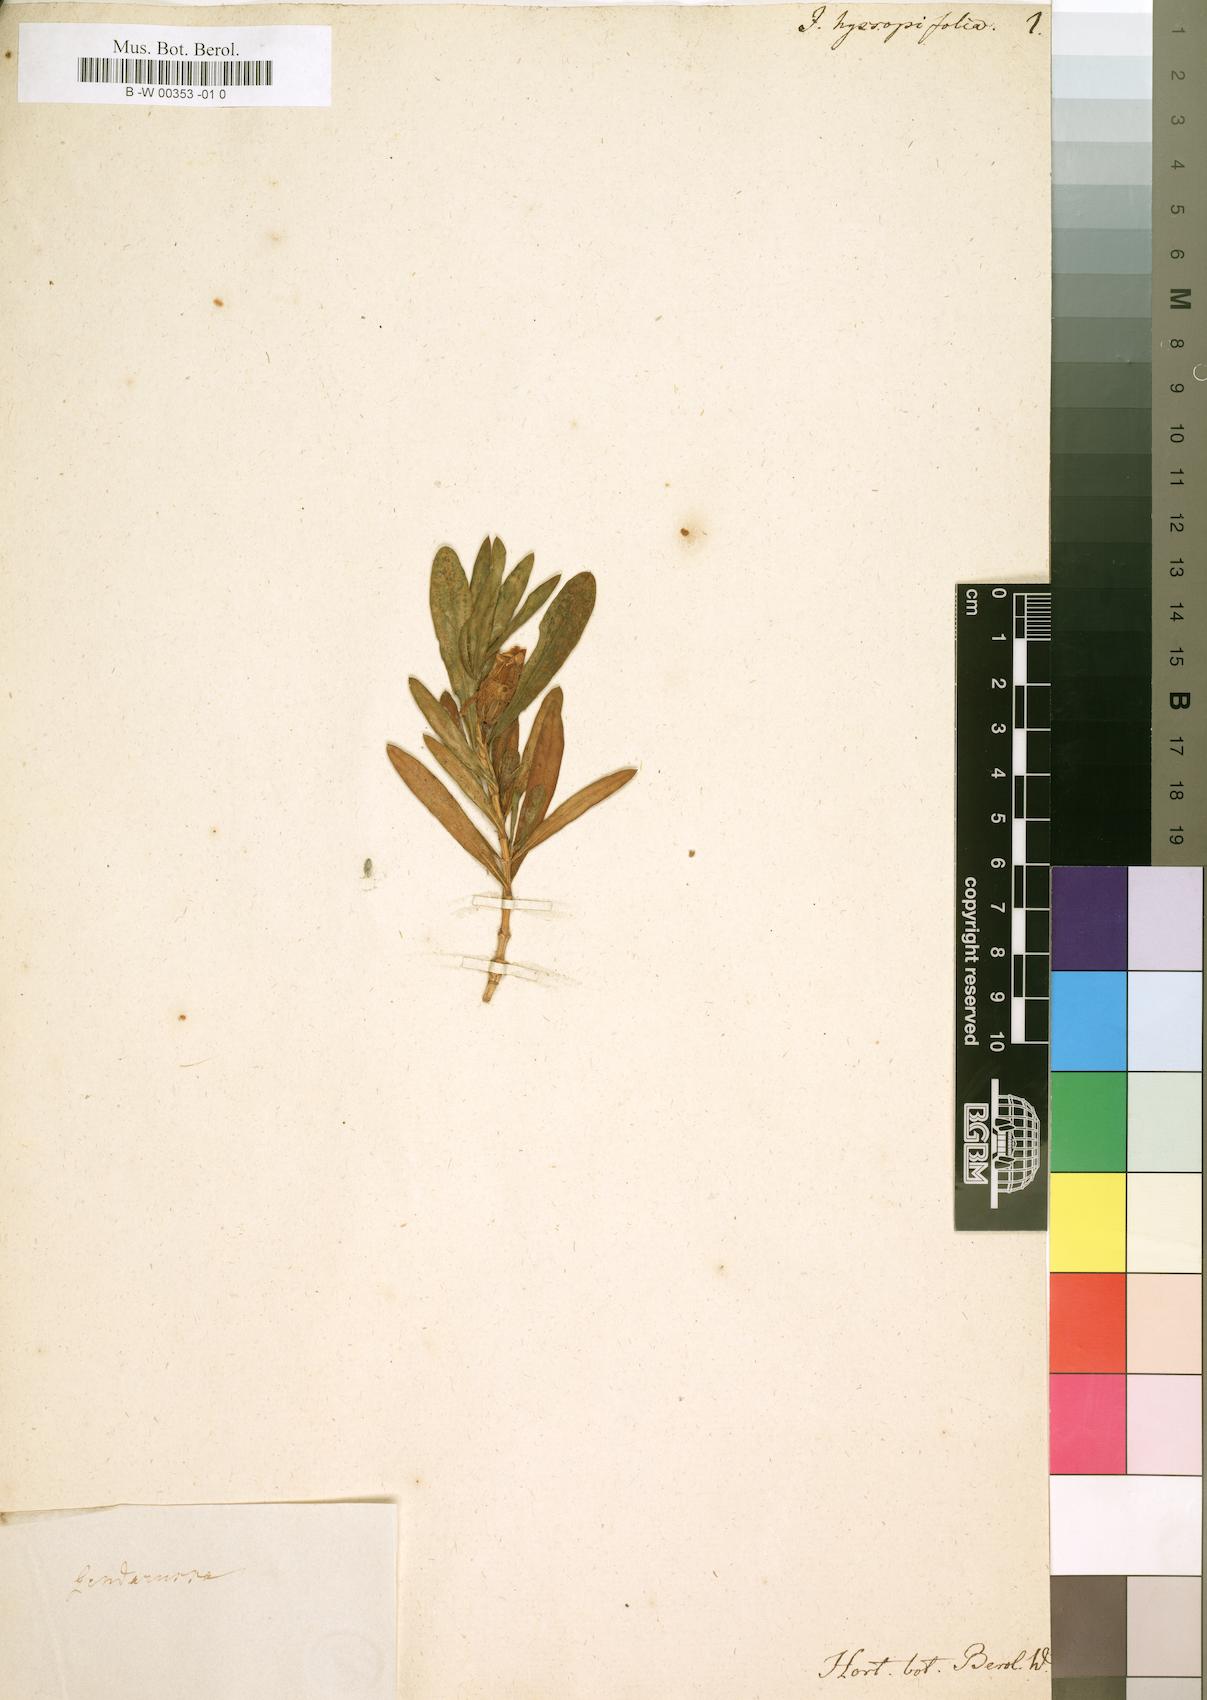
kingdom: Plantae
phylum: Tracheophyta
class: Magnoliopsida
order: Lamiales
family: Acanthaceae
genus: Justicia
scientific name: Justicia hyssopifolia
